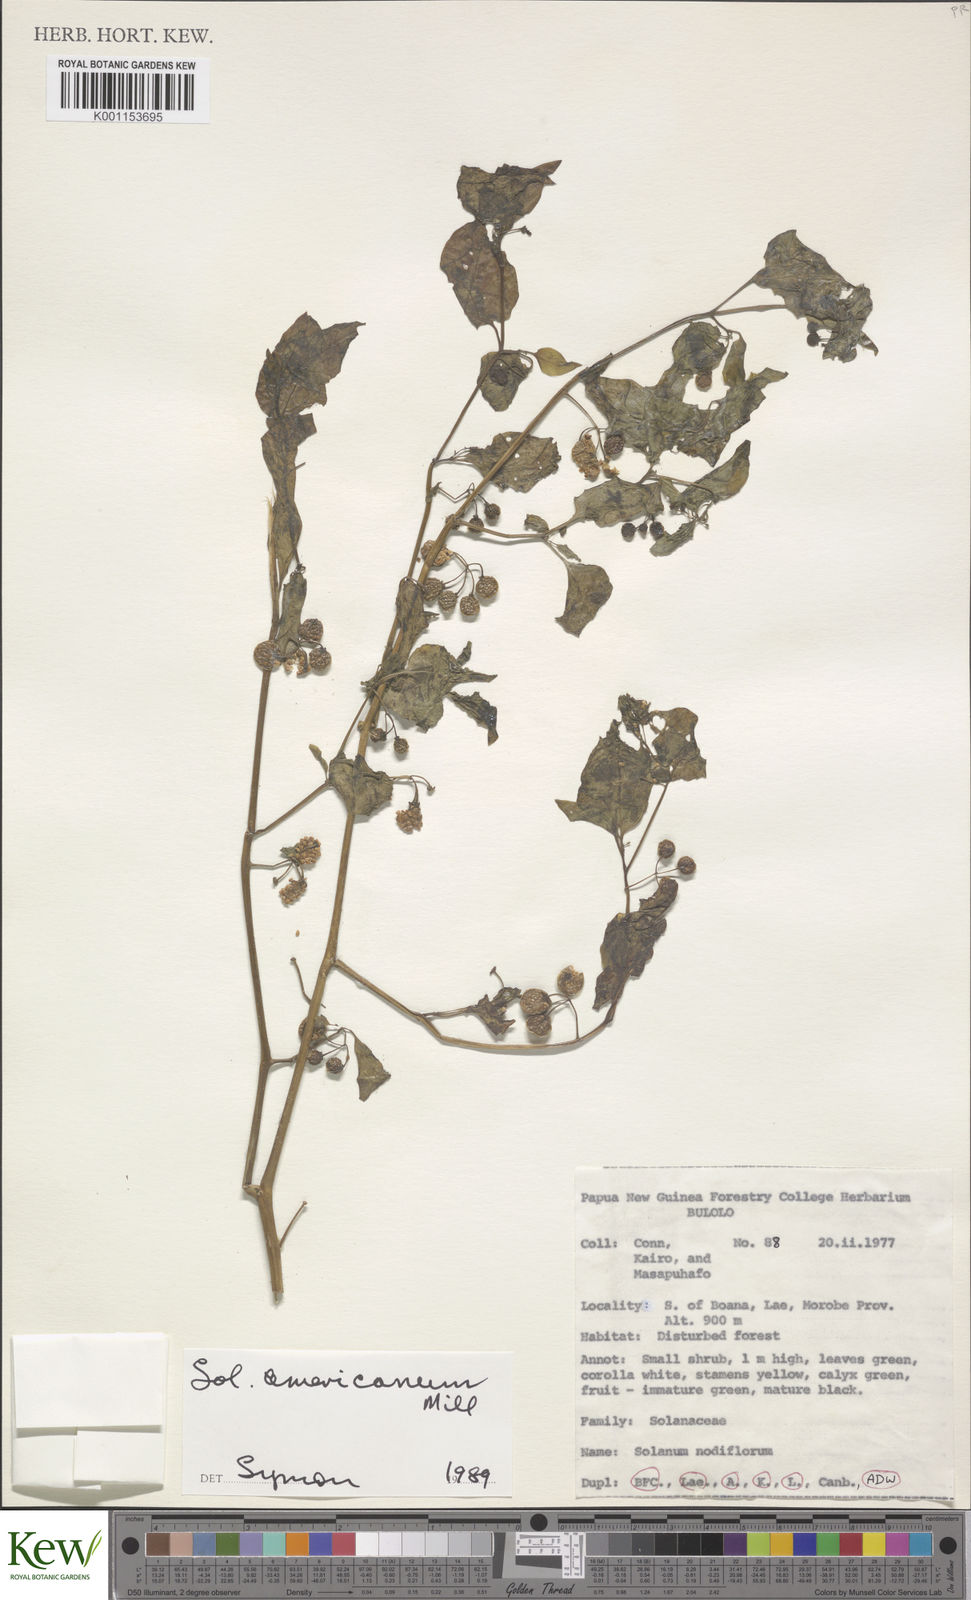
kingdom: Plantae
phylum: Tracheophyta
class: Magnoliopsida
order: Solanales
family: Solanaceae
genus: Solanum
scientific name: Solanum americanum
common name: American black nightshade
